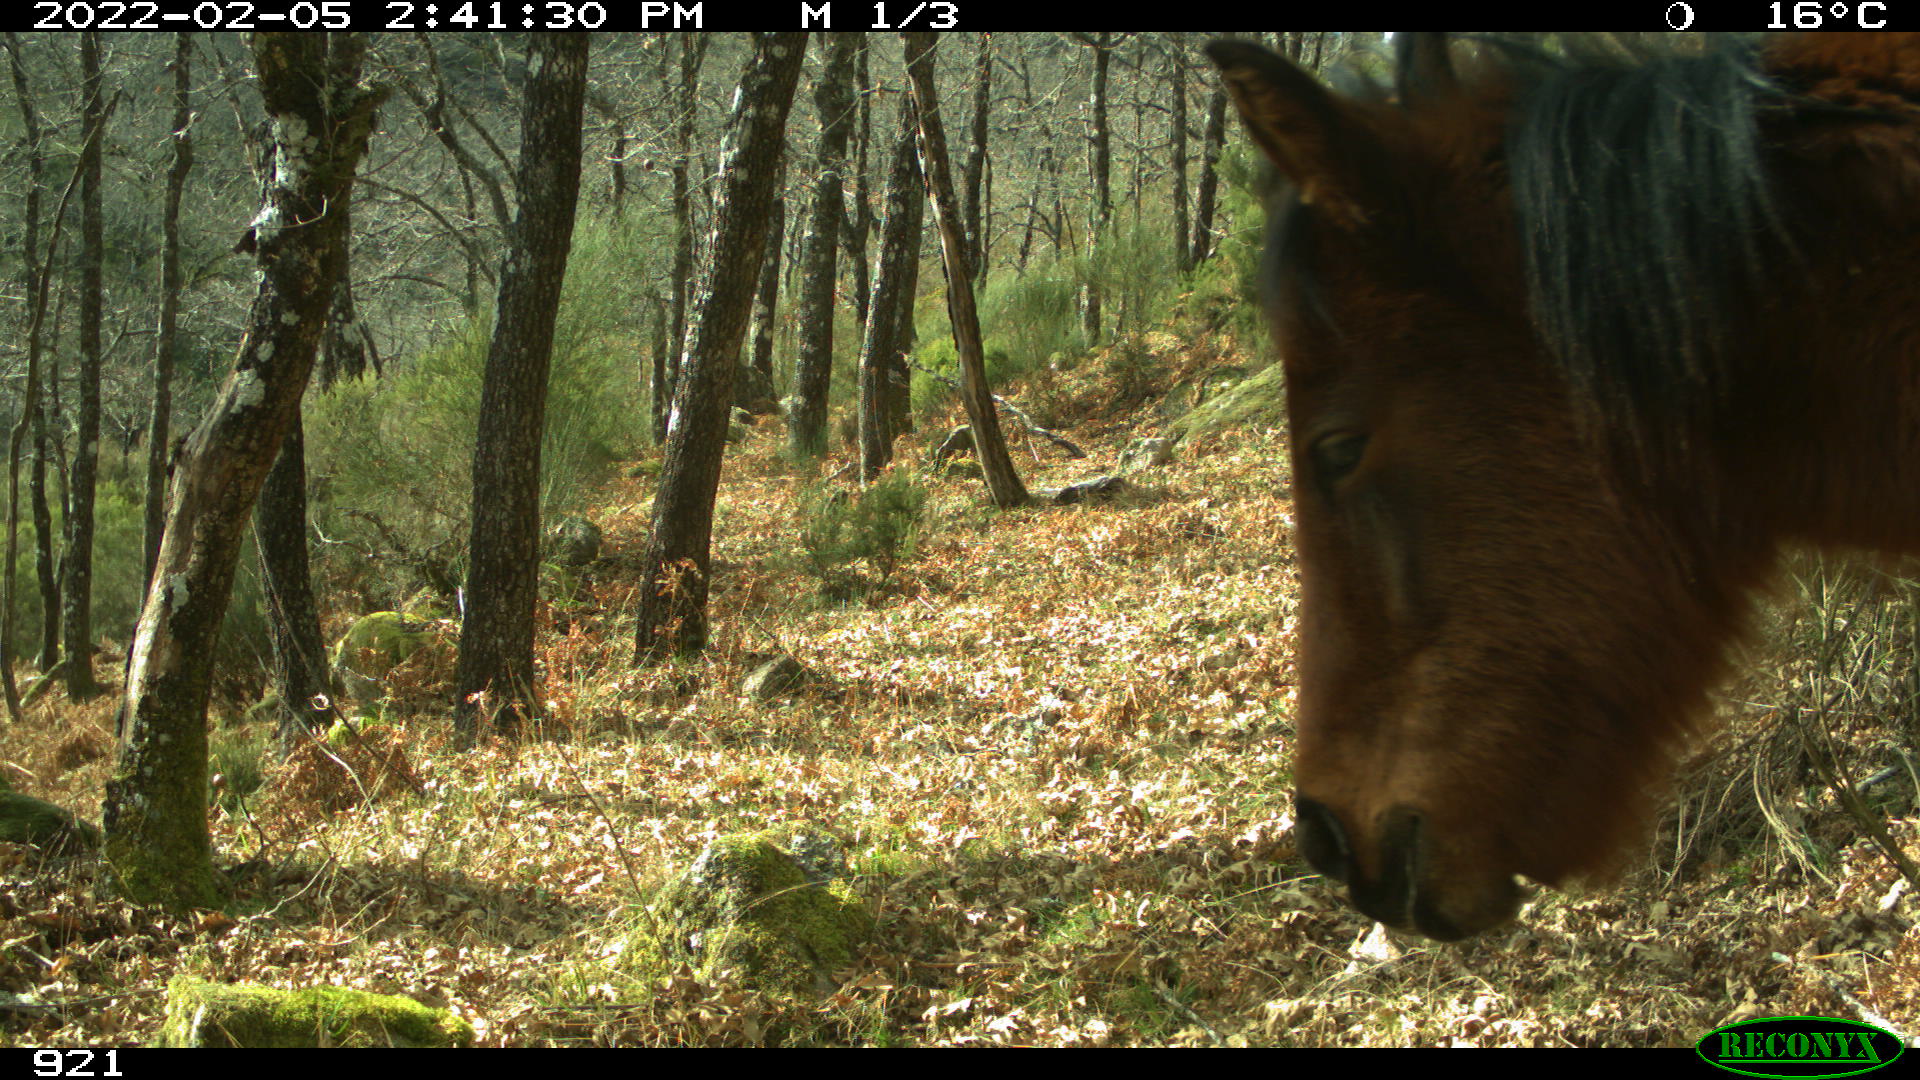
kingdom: Animalia
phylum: Chordata
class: Mammalia
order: Perissodactyla
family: Equidae
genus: Equus
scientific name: Equus caballus
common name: Horse
